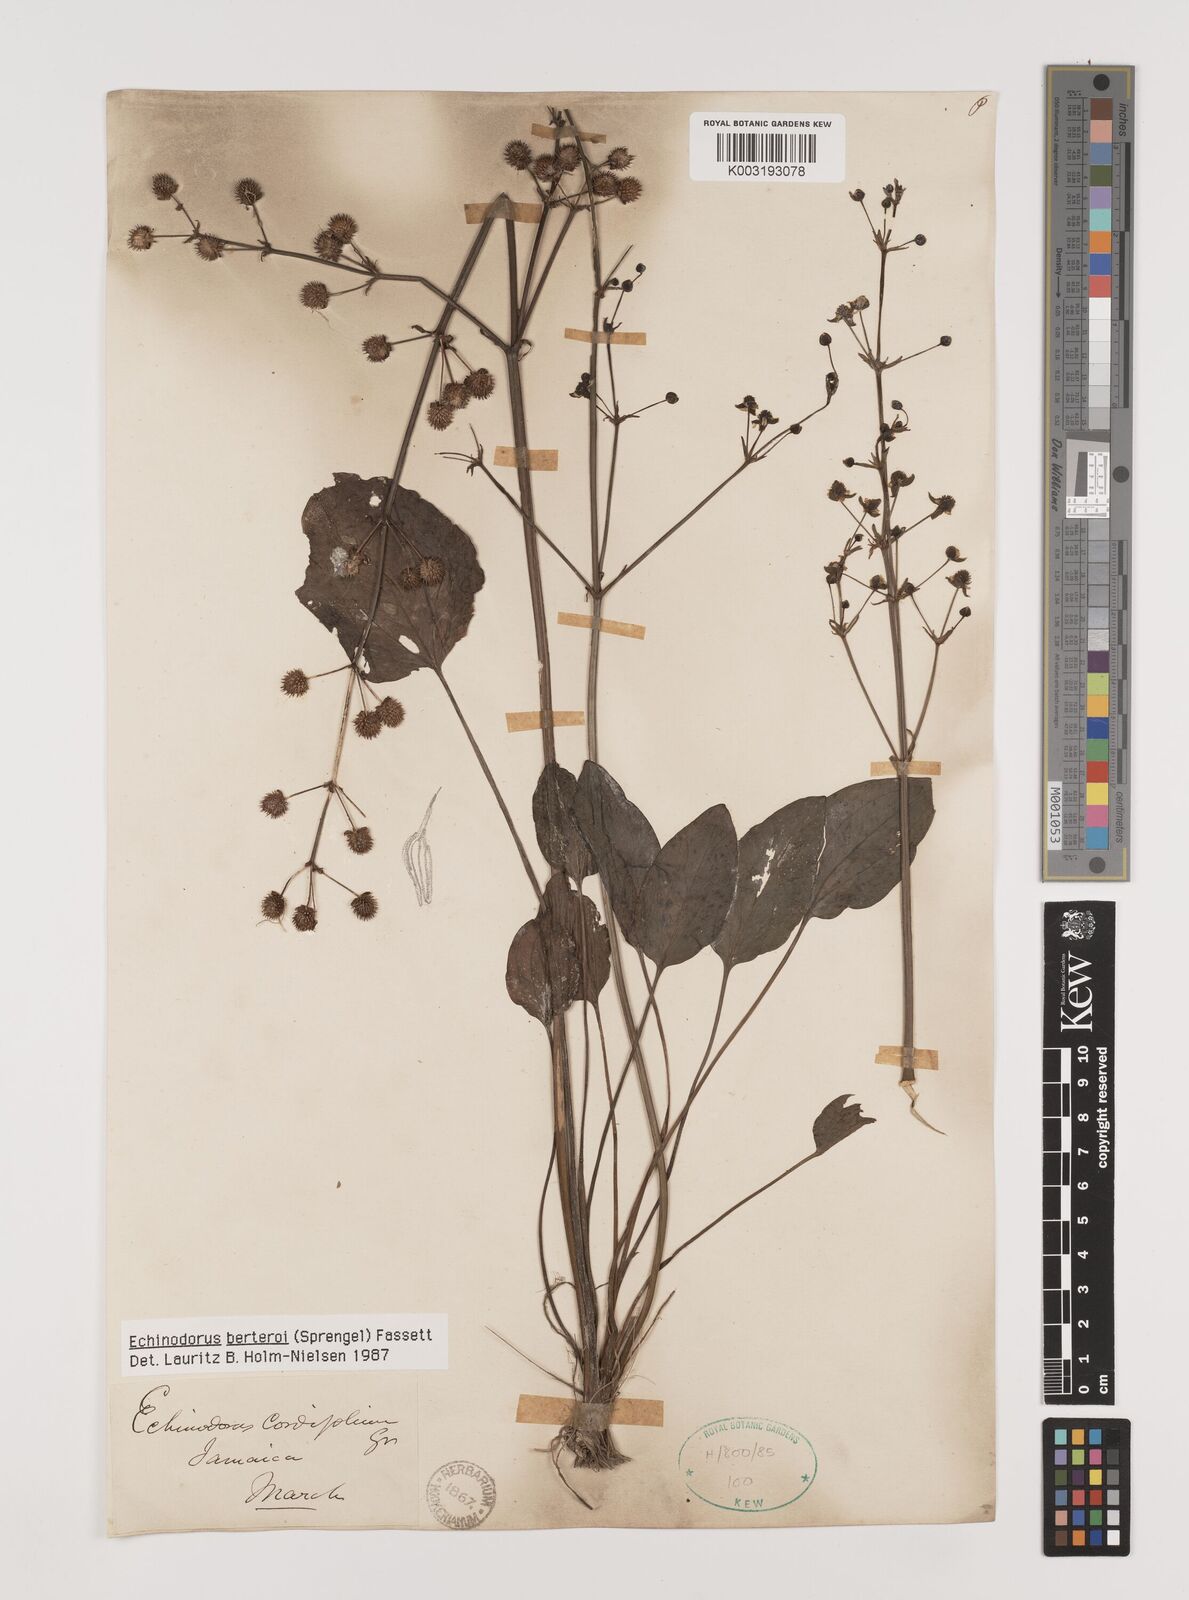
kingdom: Plantae
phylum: Tracheophyta
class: Liliopsida
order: Alismatales
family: Alismataceae
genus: Echinodorus
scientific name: Echinodorus berteroi
